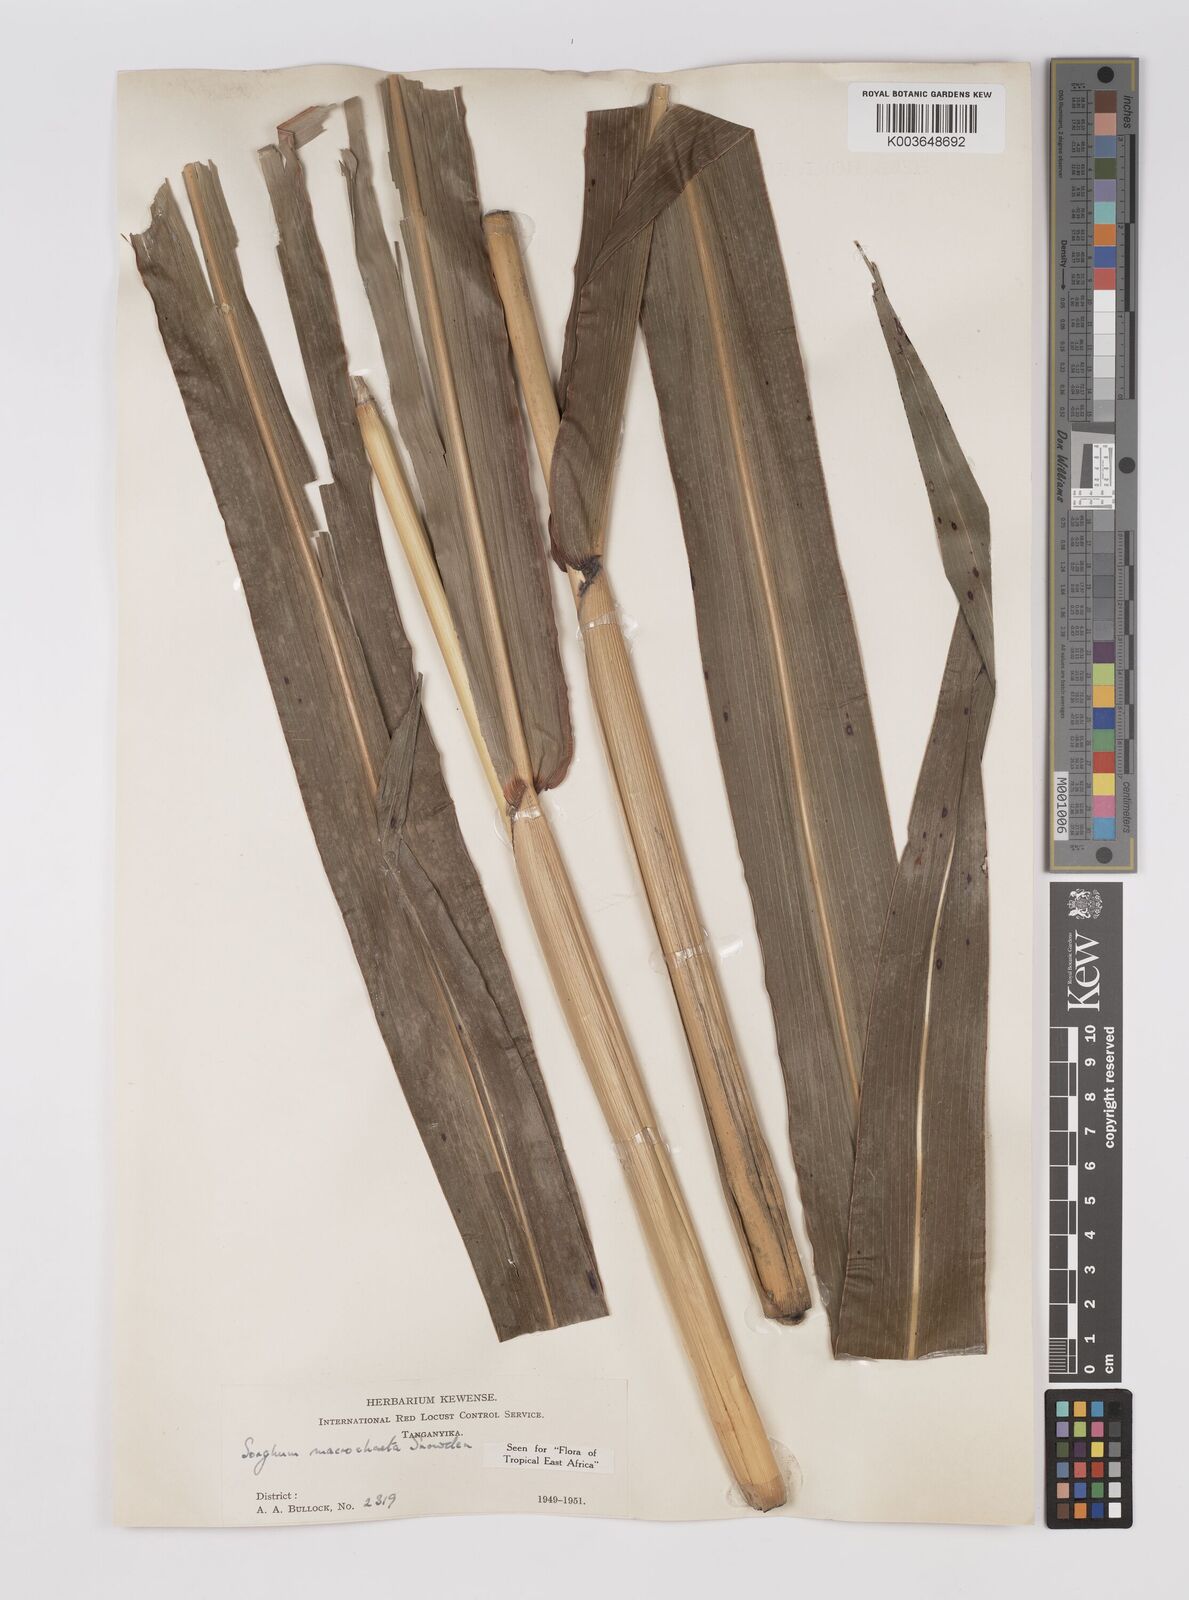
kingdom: Plantae
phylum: Tracheophyta
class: Liliopsida
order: Poales
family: Poaceae
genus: Sorghum
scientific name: Sorghum arundinaceum
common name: Sorghum
